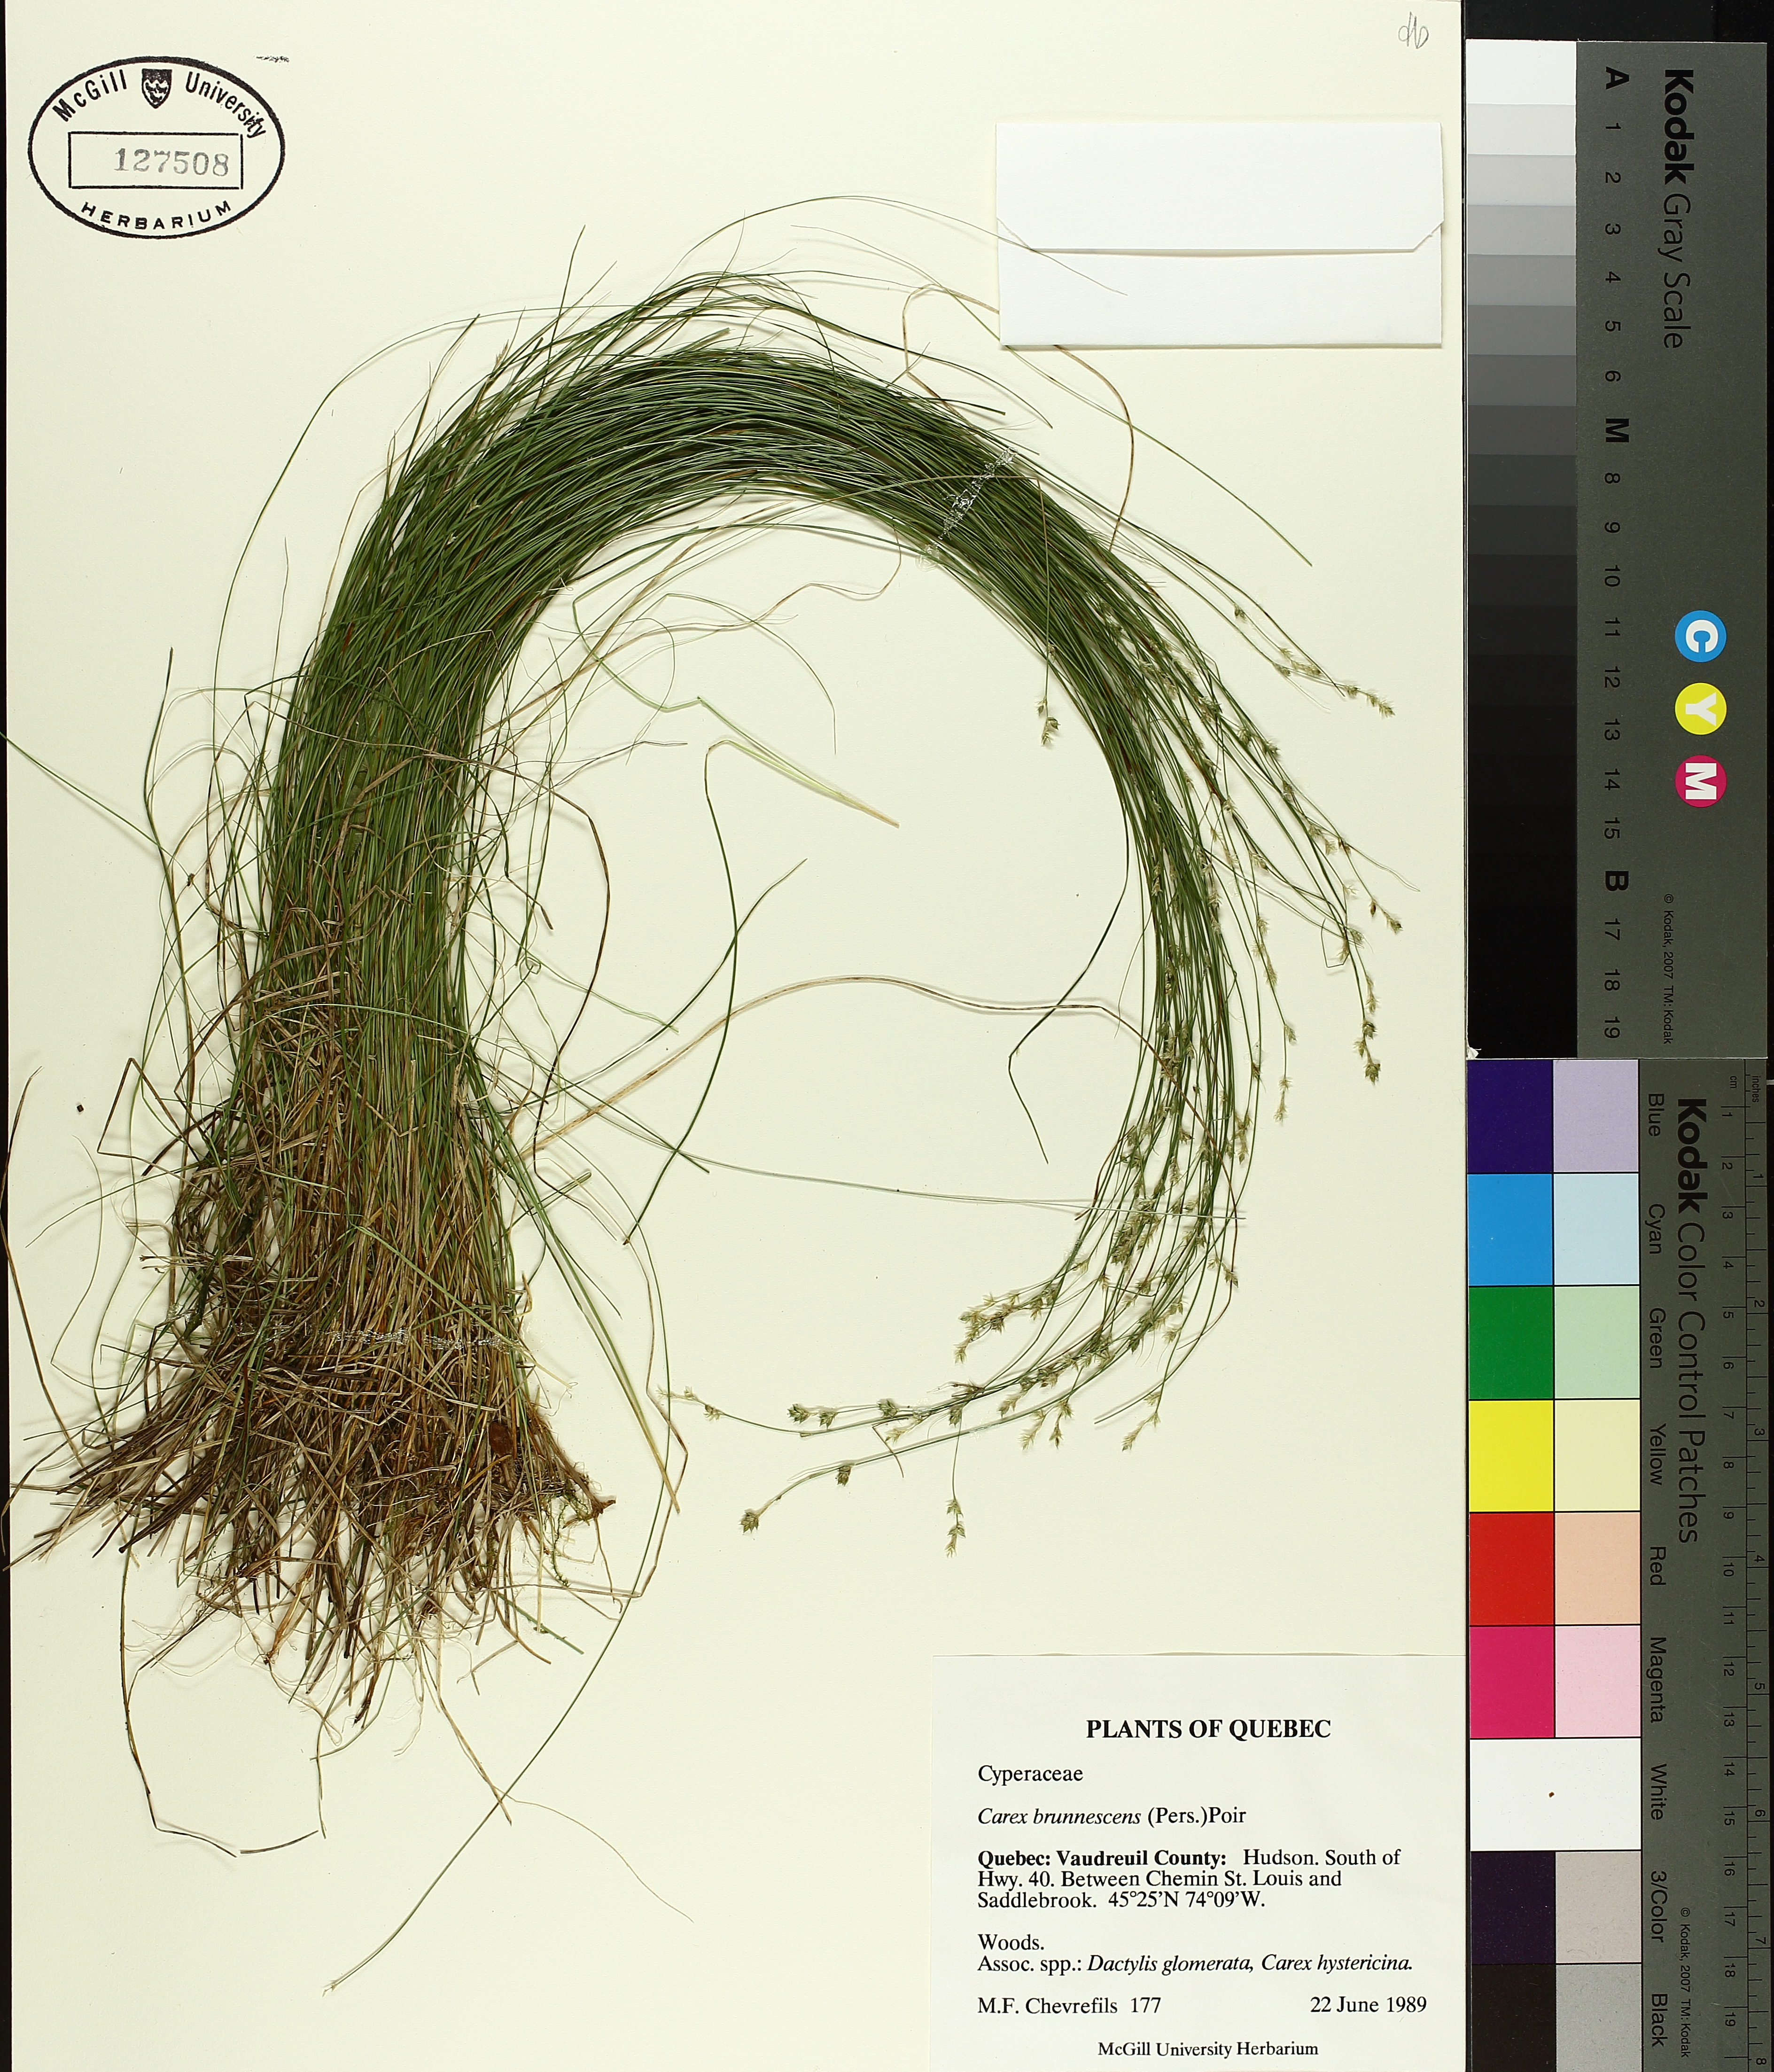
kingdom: Plantae
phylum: Tracheophyta
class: Liliopsida
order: Poales
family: Cyperaceae
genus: Carex
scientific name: Carex brunnescens
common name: Brown sedge
